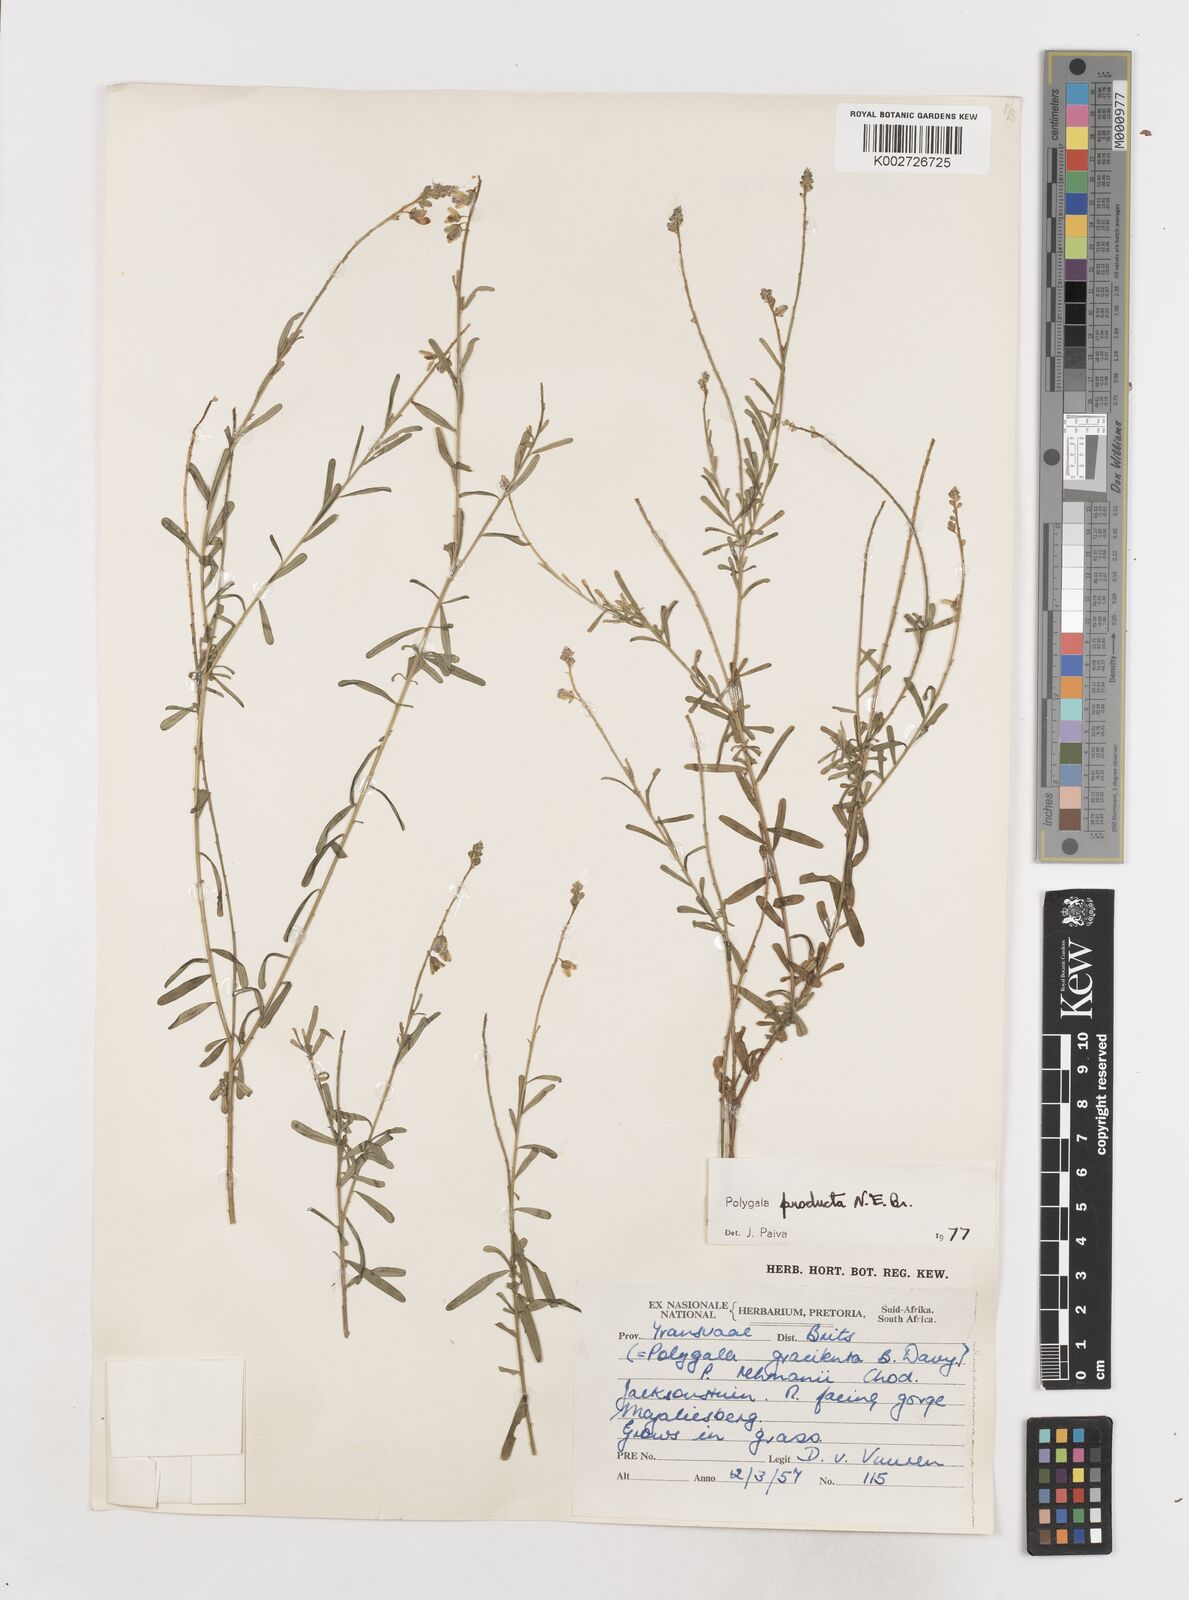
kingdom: Plantae
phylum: Tracheophyta
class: Magnoliopsida
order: Fabales
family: Polygalaceae
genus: Polygala
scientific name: Polygala producta
